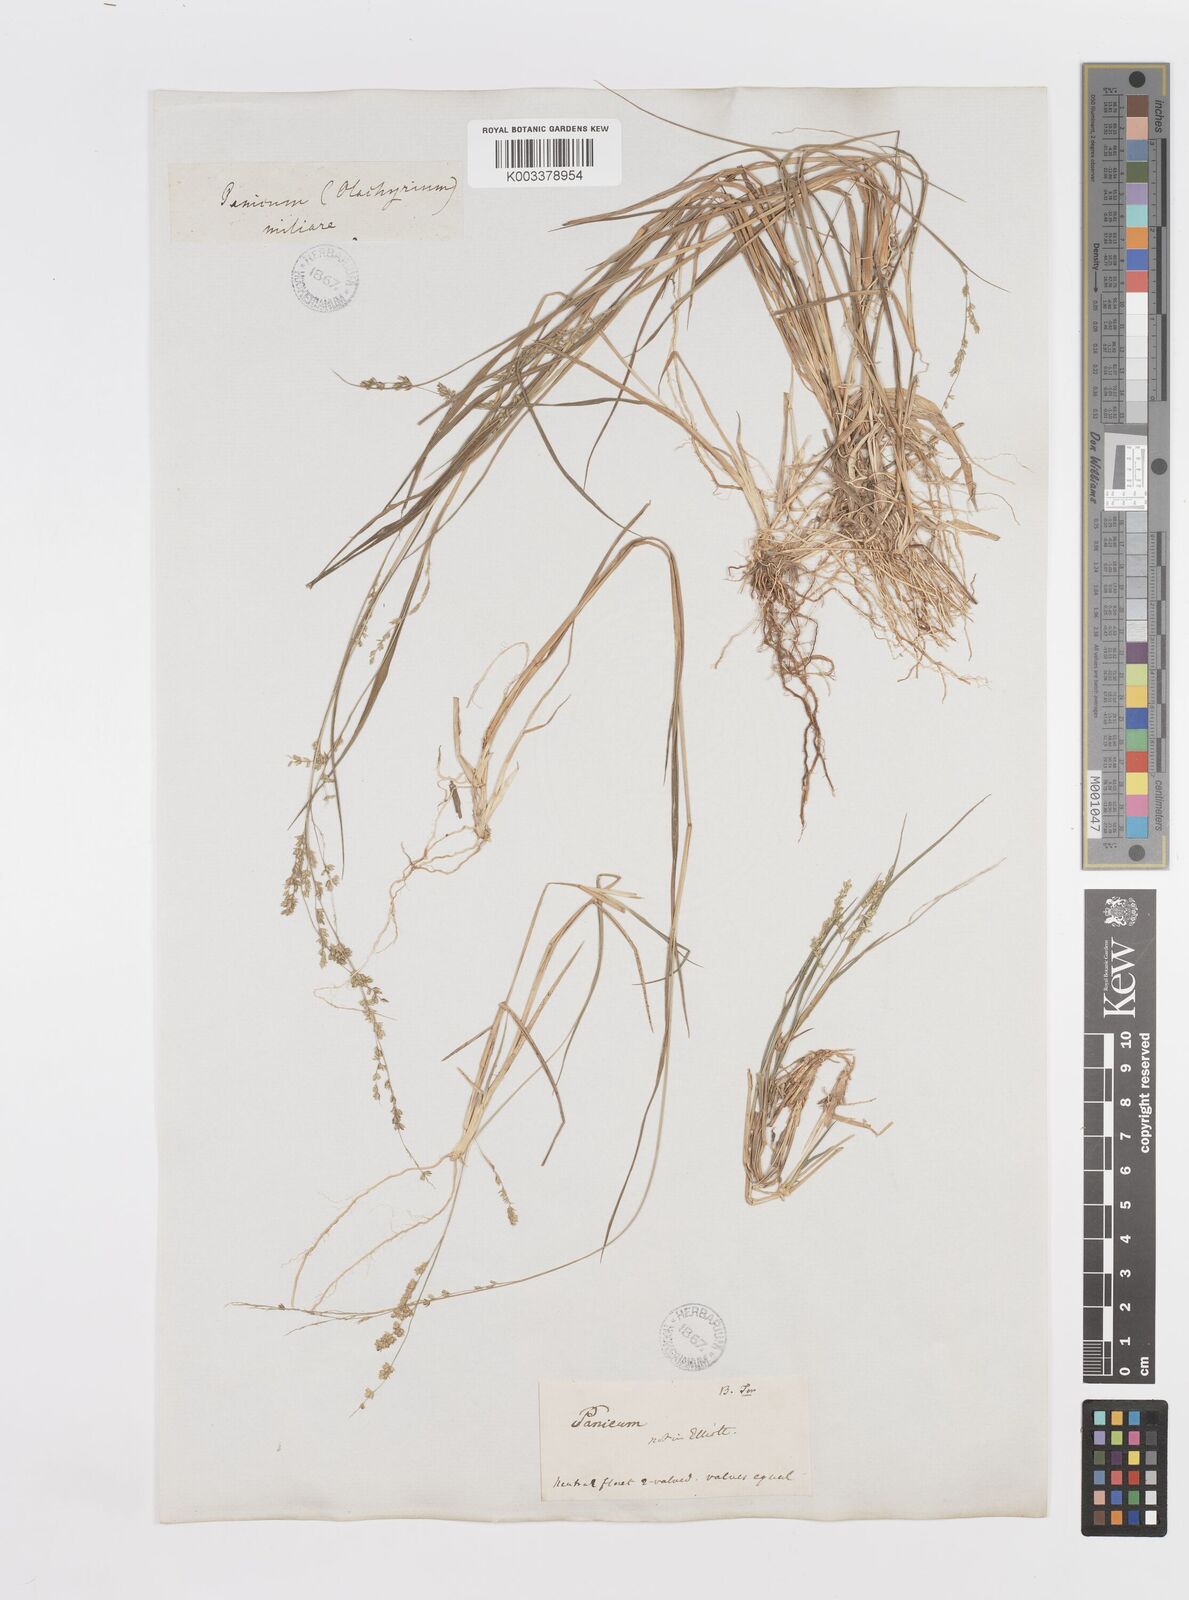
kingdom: Plantae
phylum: Tracheophyta
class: Liliopsida
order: Poales
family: Poaceae
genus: Steinchisma
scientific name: Steinchisma hians
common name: Gaping panic grass
